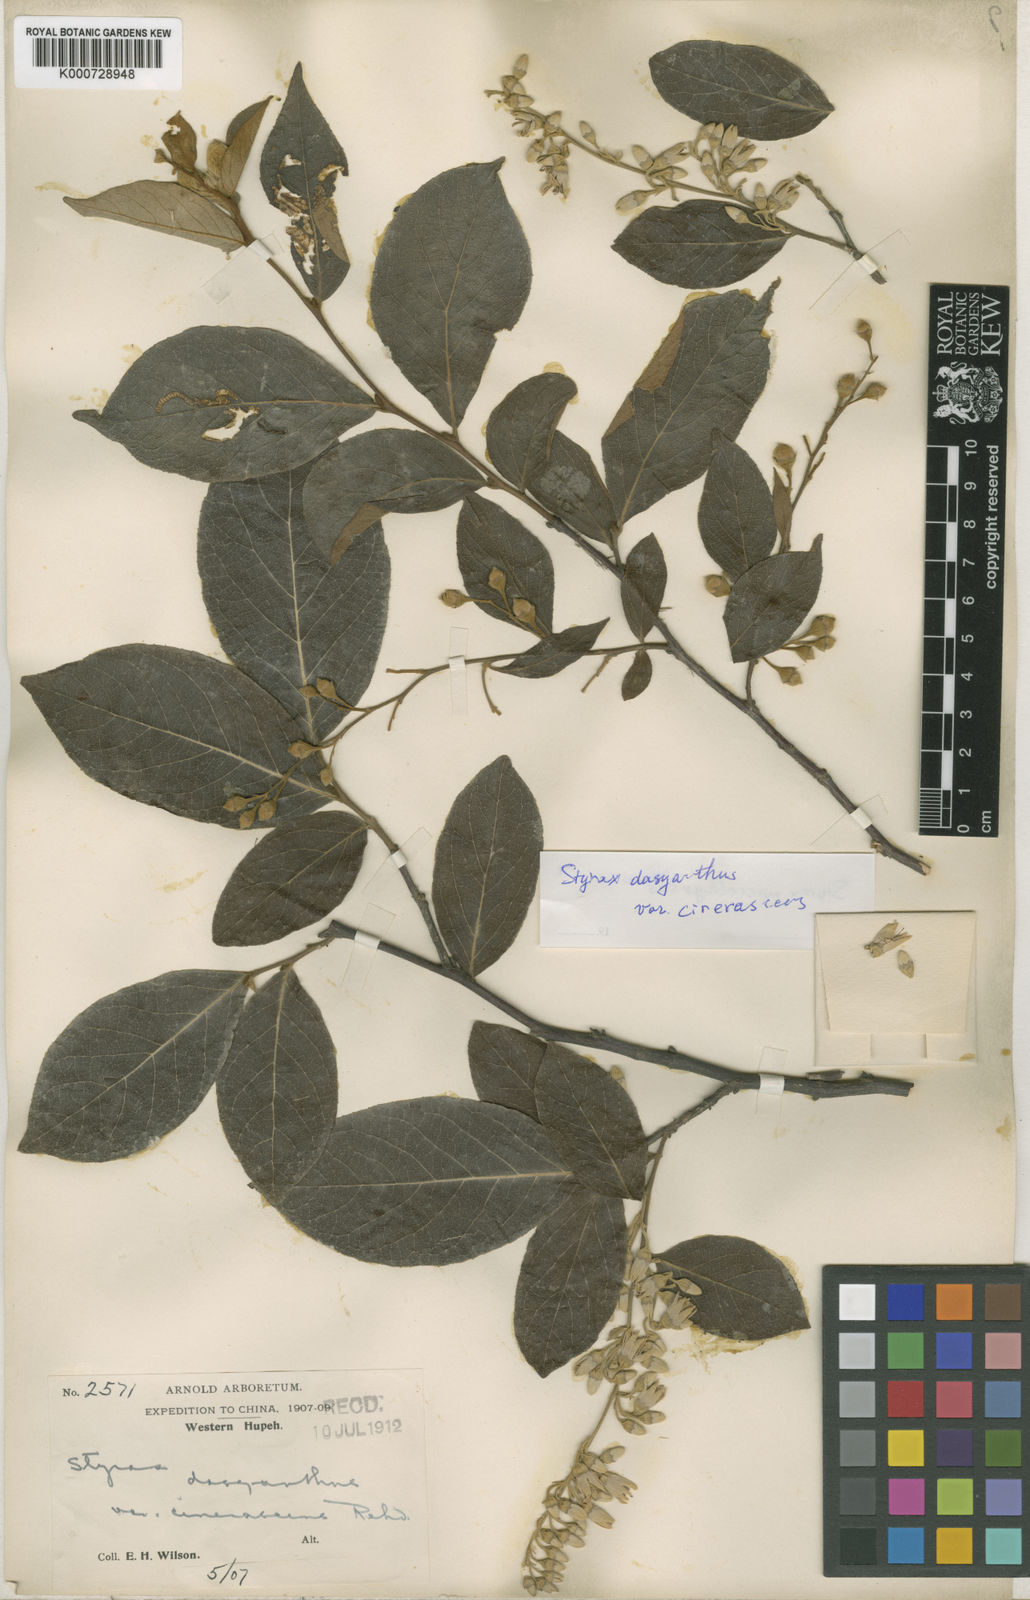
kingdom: Plantae
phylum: Tracheophyta
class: Magnoliopsida
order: Ericales
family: Styracaceae
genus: Styrax
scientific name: Styrax fortunei
